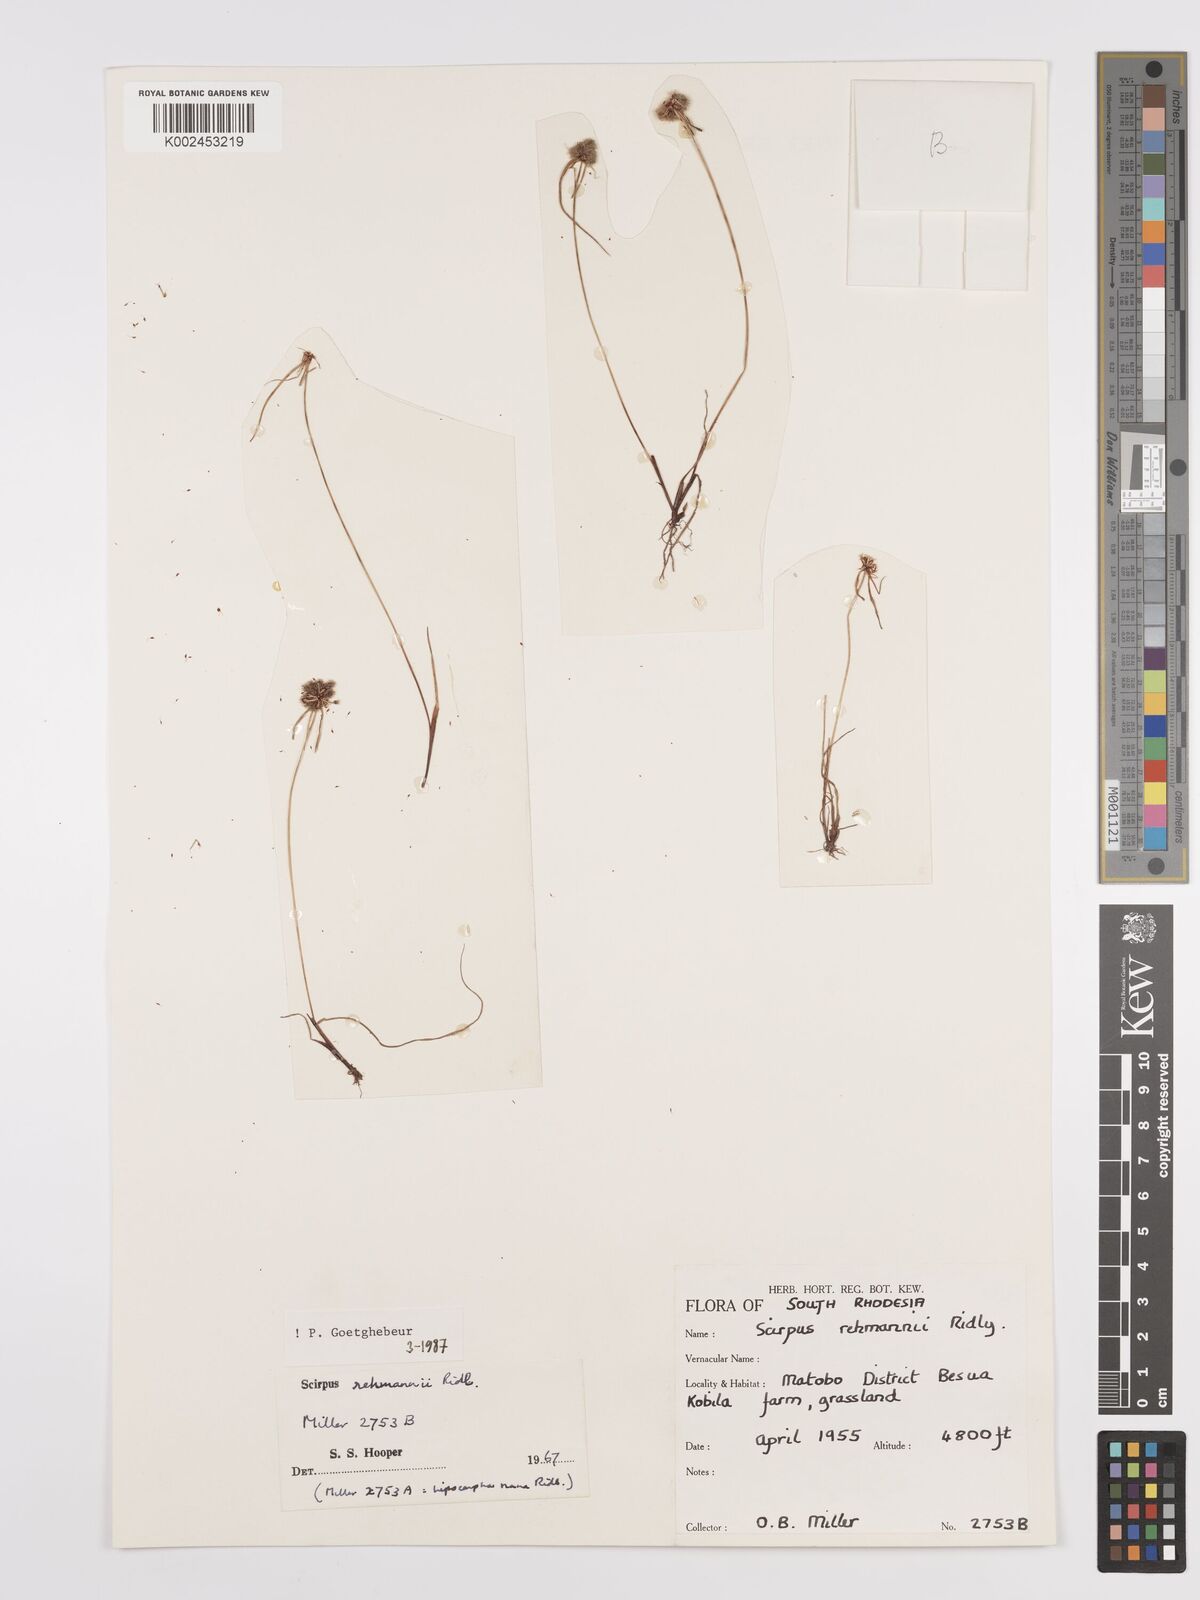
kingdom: Plantae
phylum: Tracheophyta
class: Liliopsida
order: Poales
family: Cyperaceae
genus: Cyperus
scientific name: Cyperus sanguinolentus
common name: Purpleglume flatsedge
